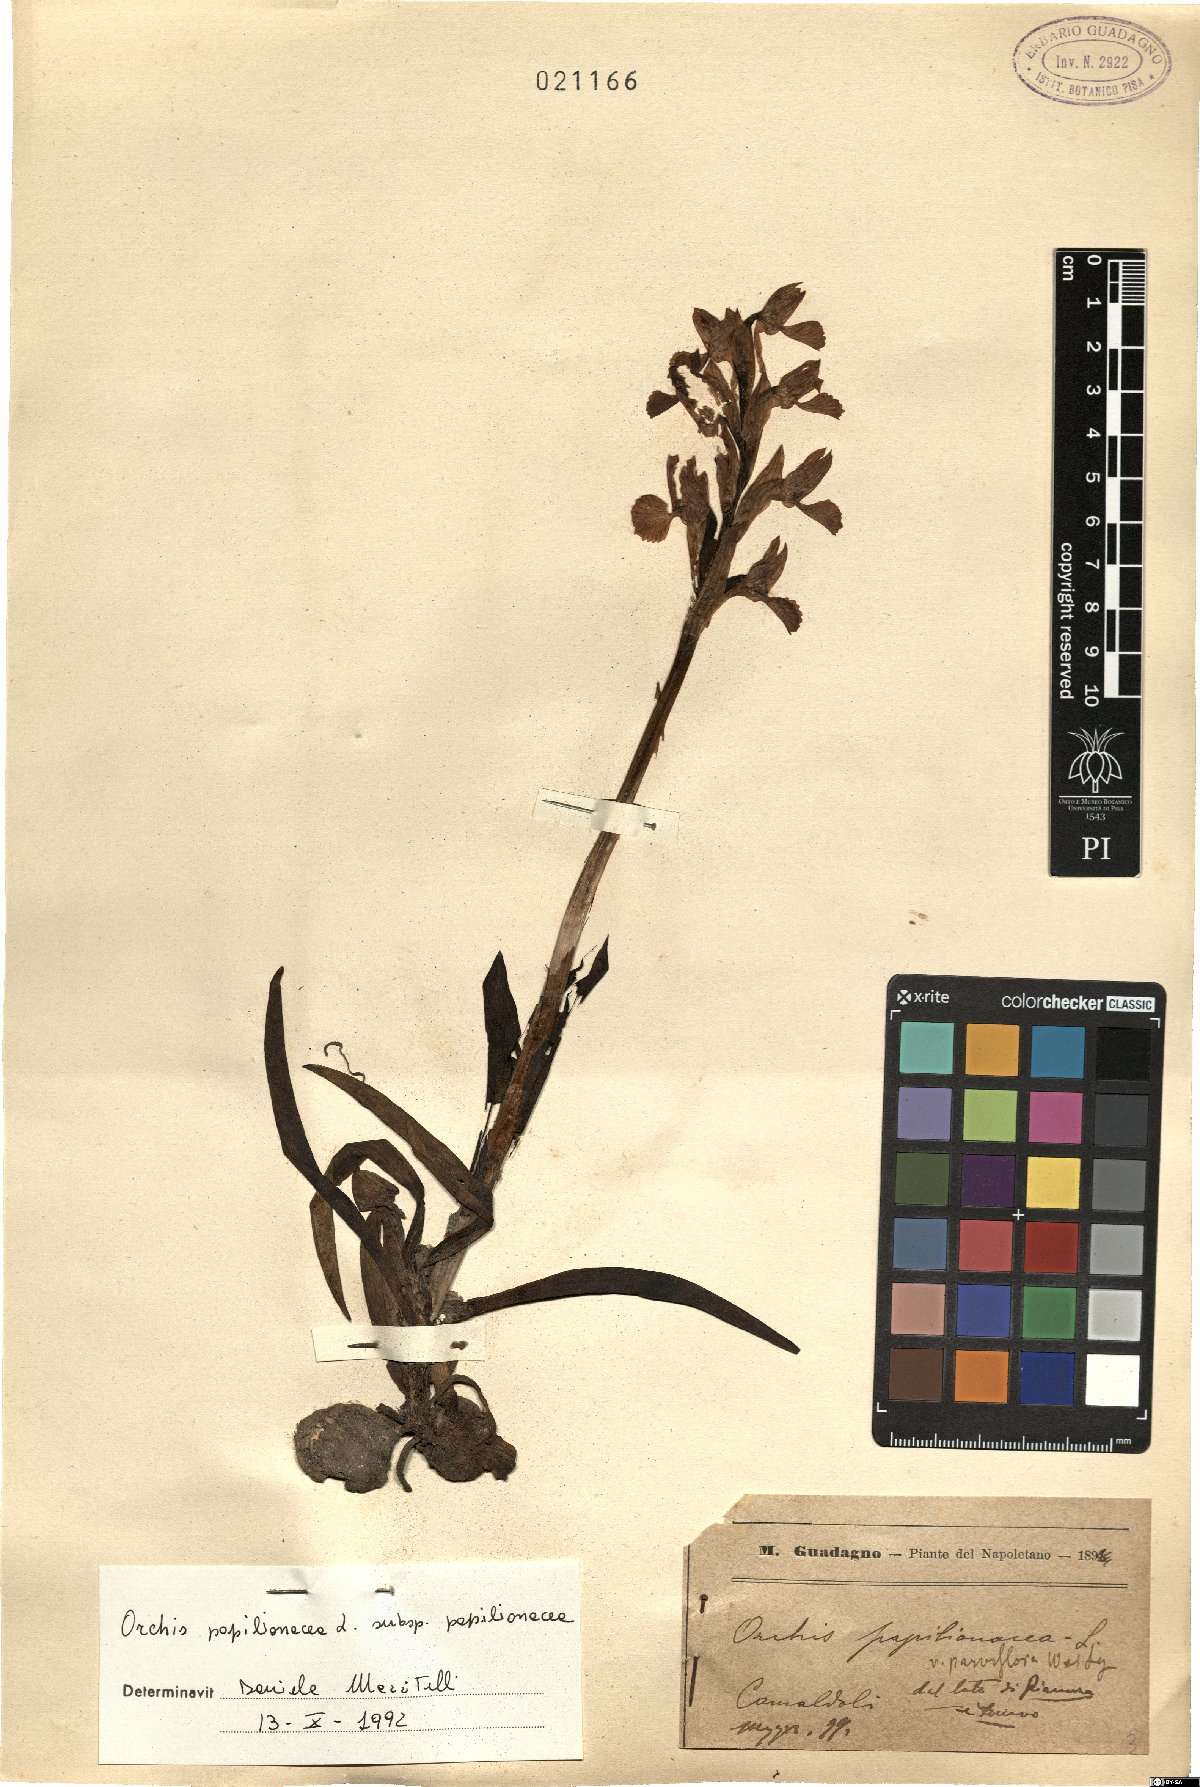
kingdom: Plantae
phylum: Tracheophyta
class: Liliopsida
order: Asparagales
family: Orchidaceae
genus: Anacamptis
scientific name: Anacamptis papilionacea
